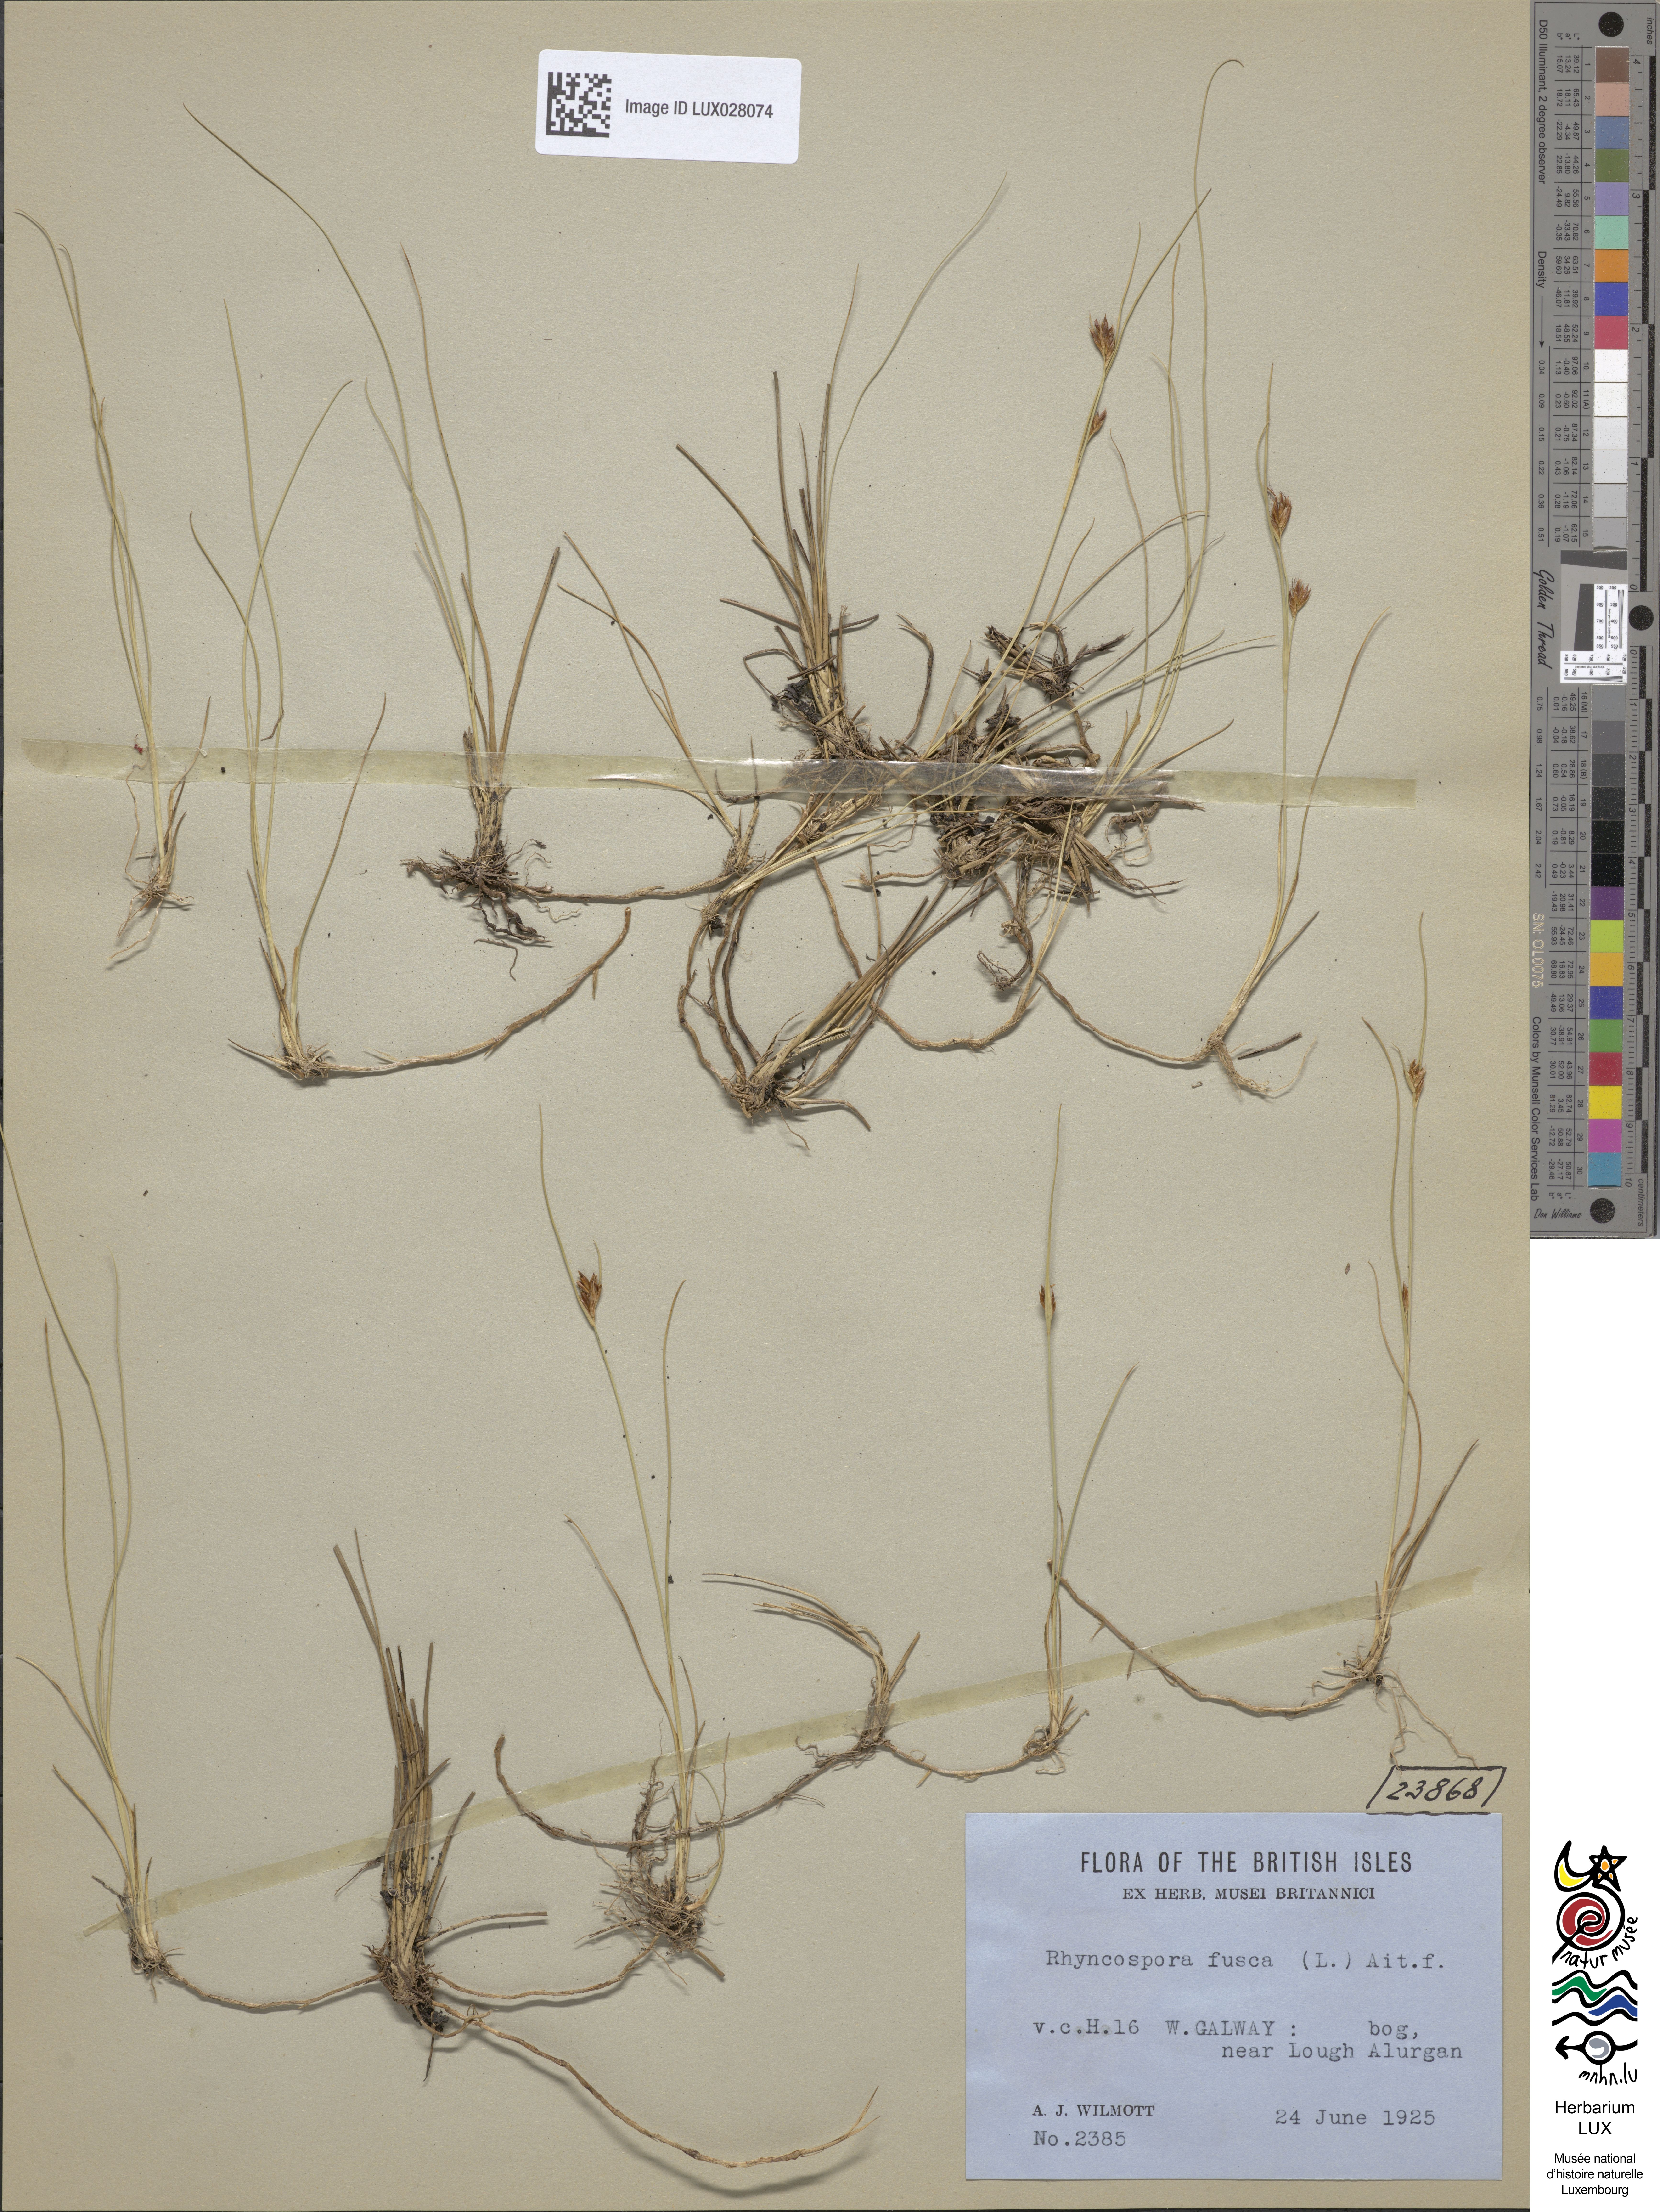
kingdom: Plantae
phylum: Tracheophyta
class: Liliopsida
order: Poales
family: Cyperaceae
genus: Rhynchospora
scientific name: Rhynchospora fusca
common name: Brown beak-sedge
